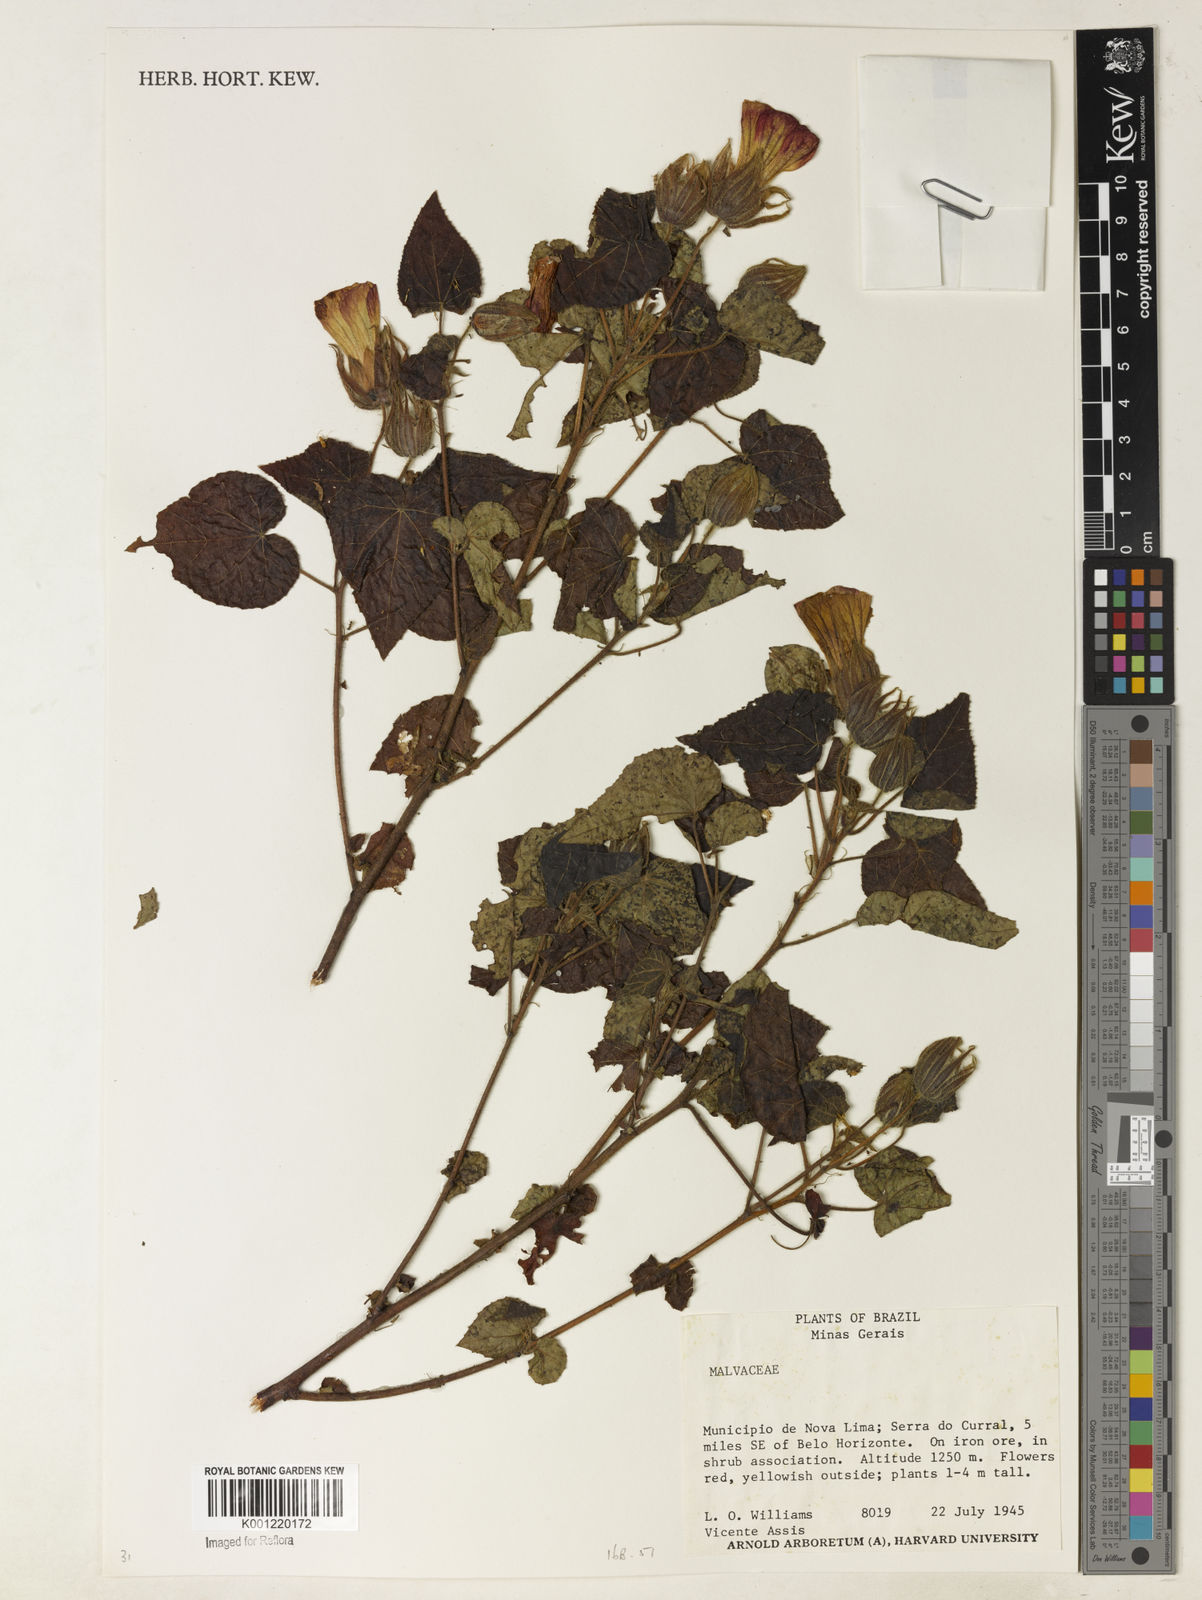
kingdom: Plantae
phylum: Tracheophyta
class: Magnoliopsida
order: Malvales
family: Malvaceae
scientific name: Malvaceae
